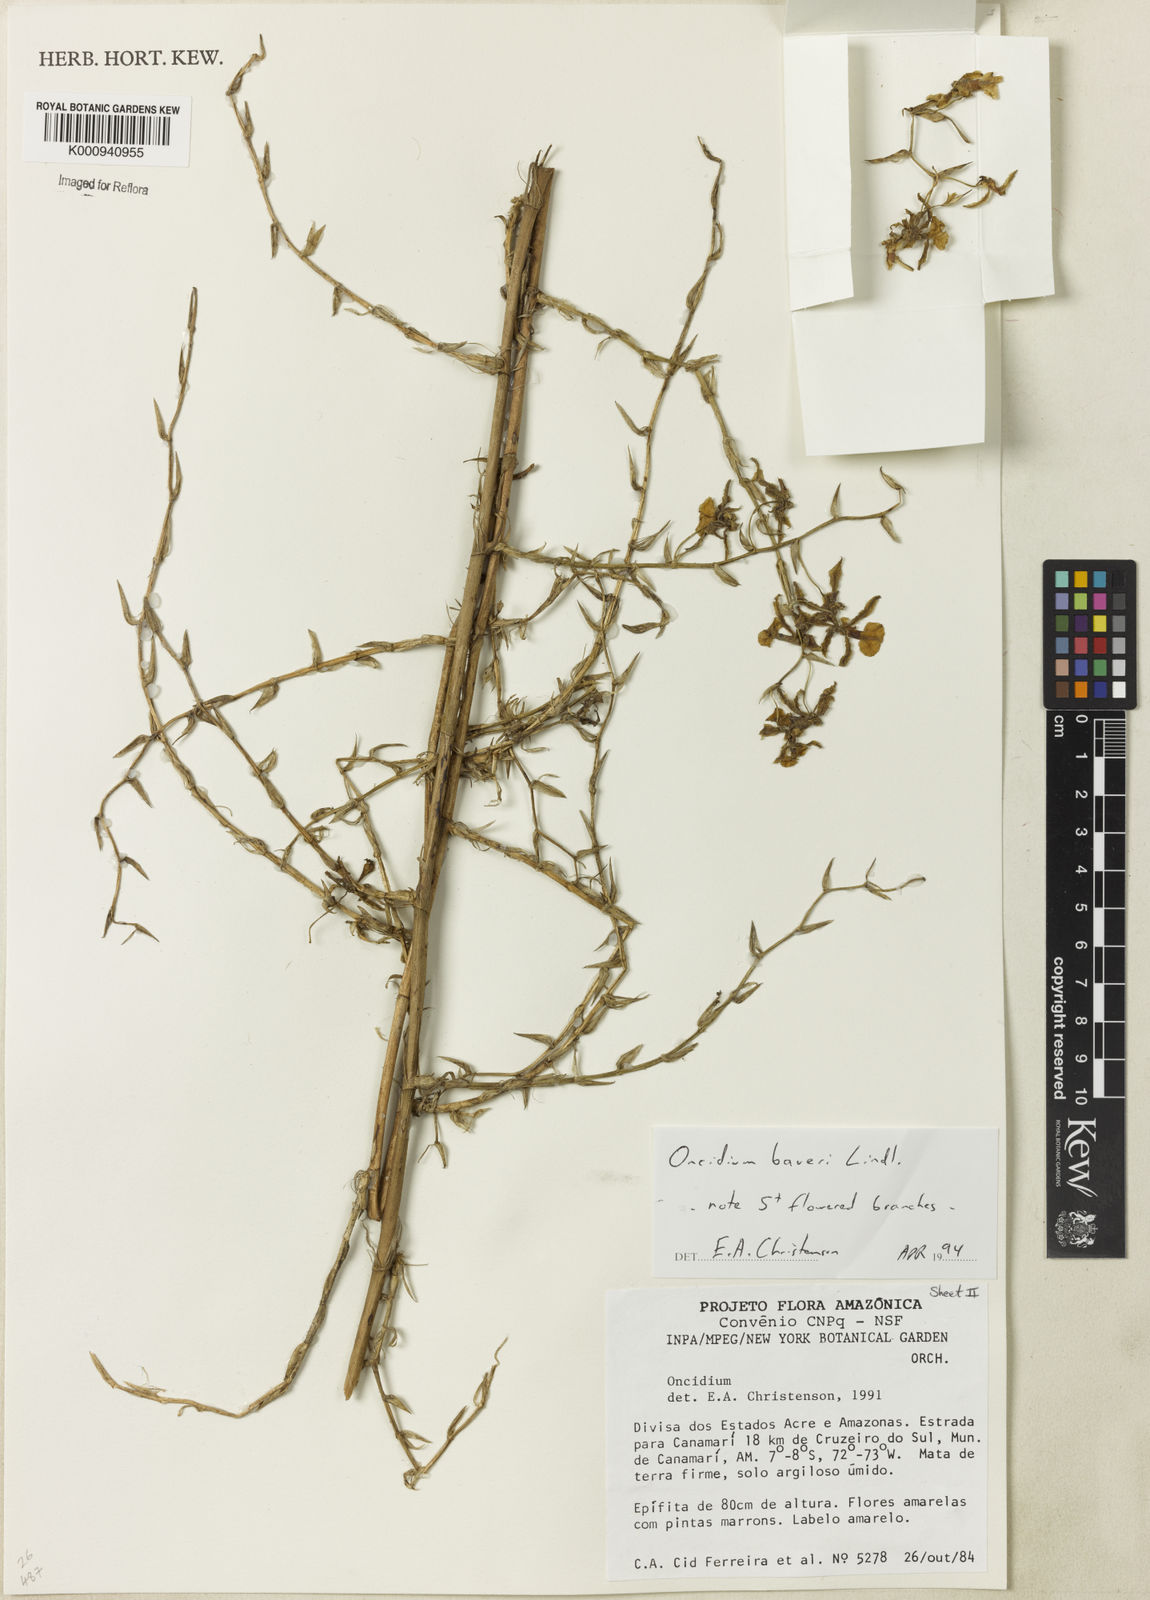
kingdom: Plantae
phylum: Tracheophyta
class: Liliopsida
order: Asparagales
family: Orchidaceae
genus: Oncidium
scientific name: Oncidium baueri
